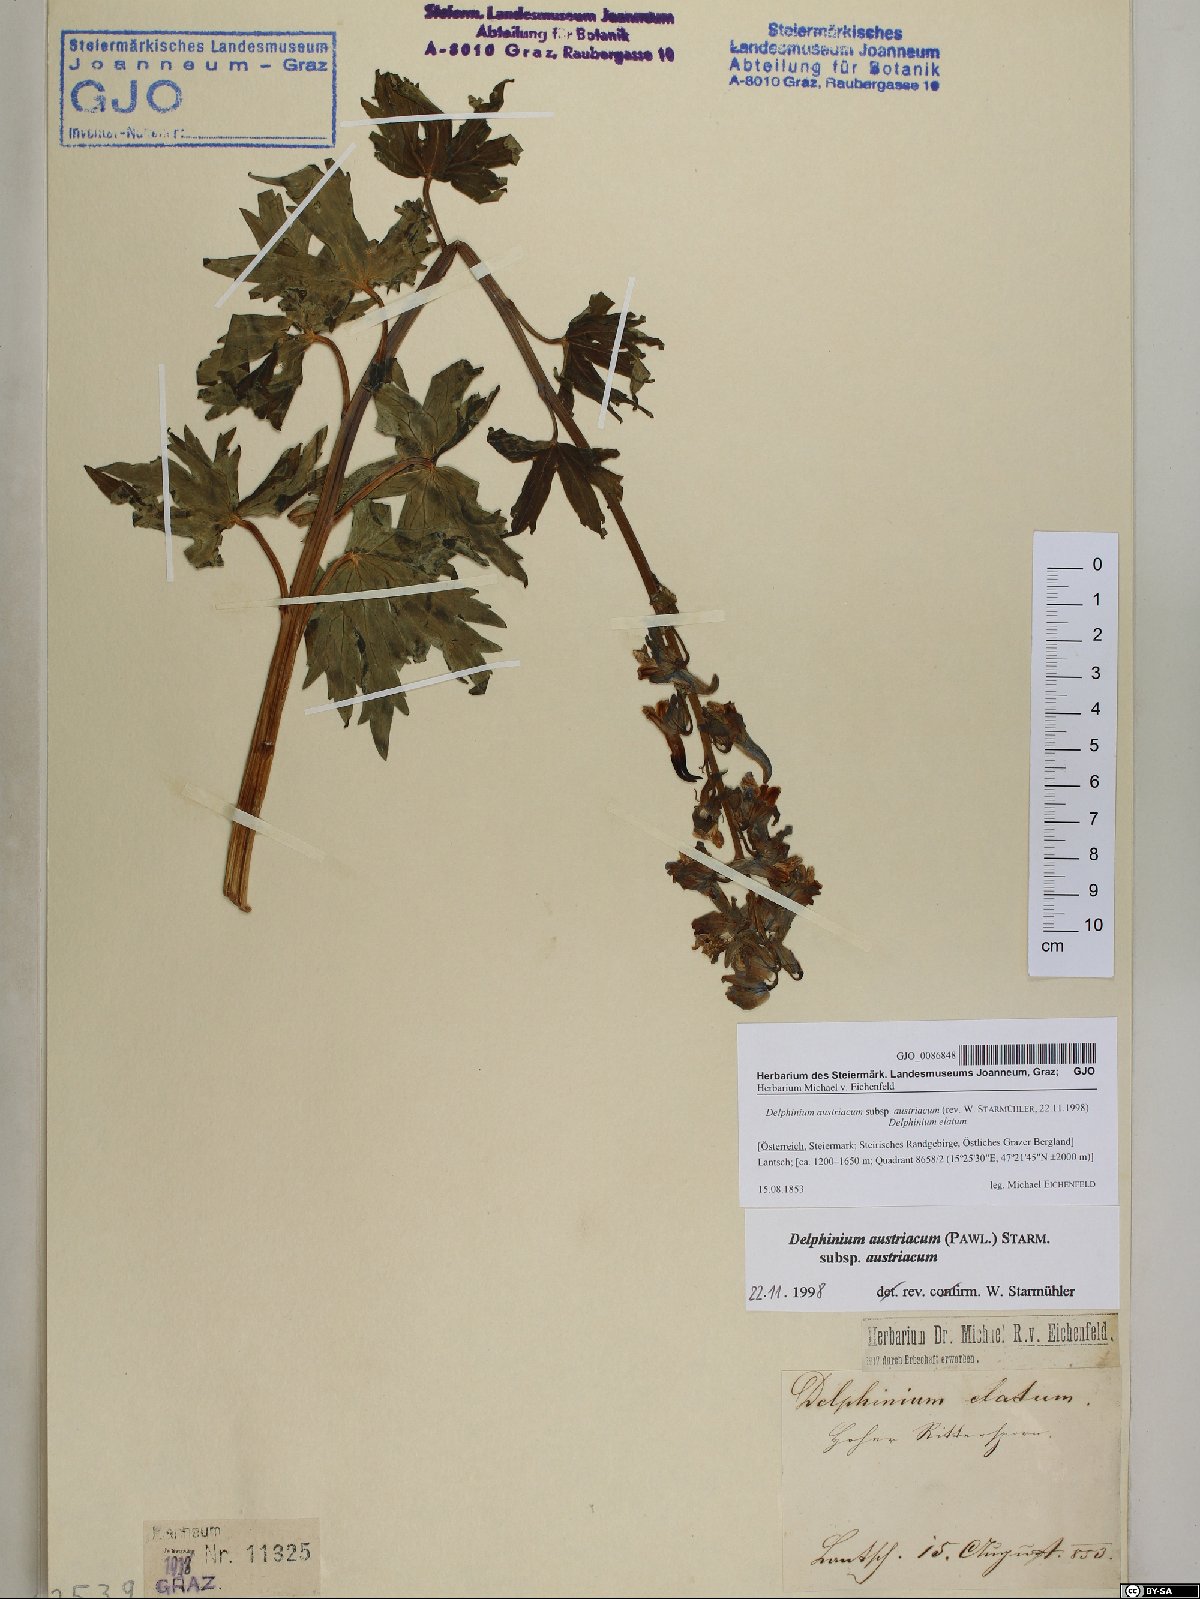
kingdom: Plantae
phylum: Tracheophyta
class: Magnoliopsida
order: Ranunculales
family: Ranunculaceae
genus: Delphinium
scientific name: Delphinium austriacum
